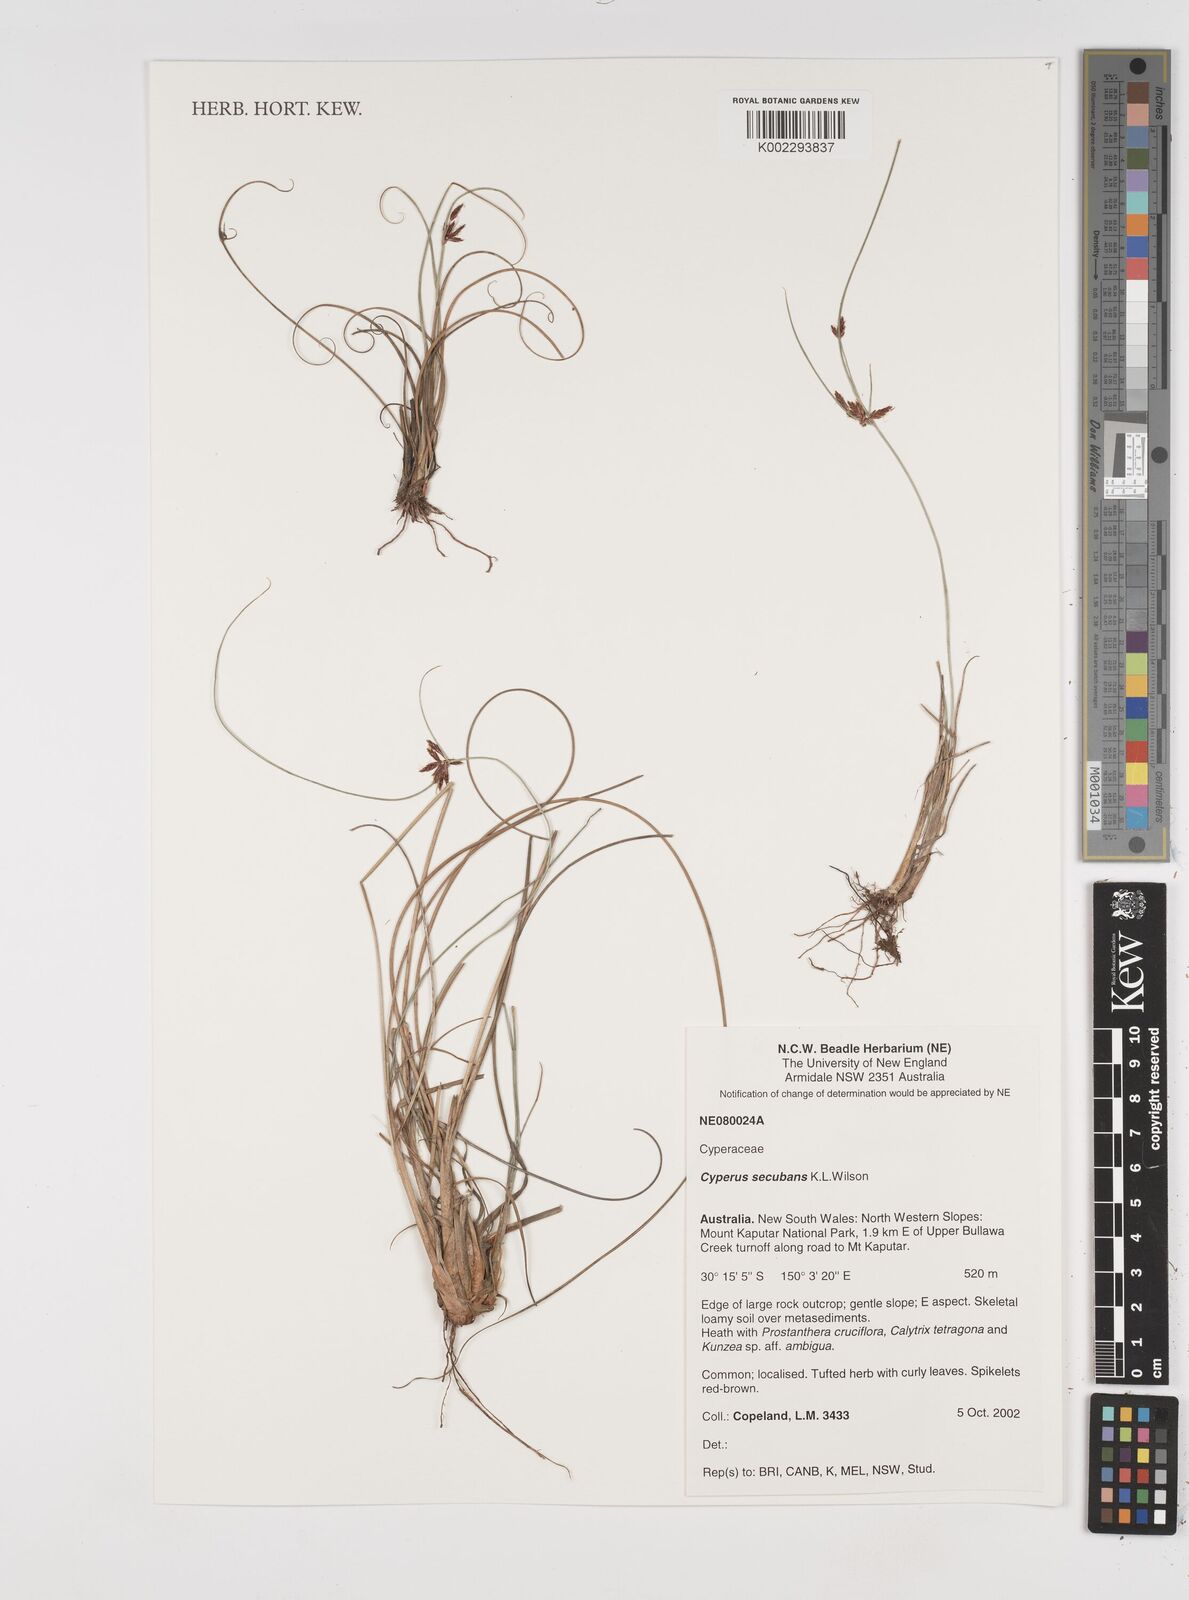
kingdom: Plantae
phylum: Tracheophyta
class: Liliopsida
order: Poales
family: Cyperaceae
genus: Cyperus
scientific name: Cyperus secubans
